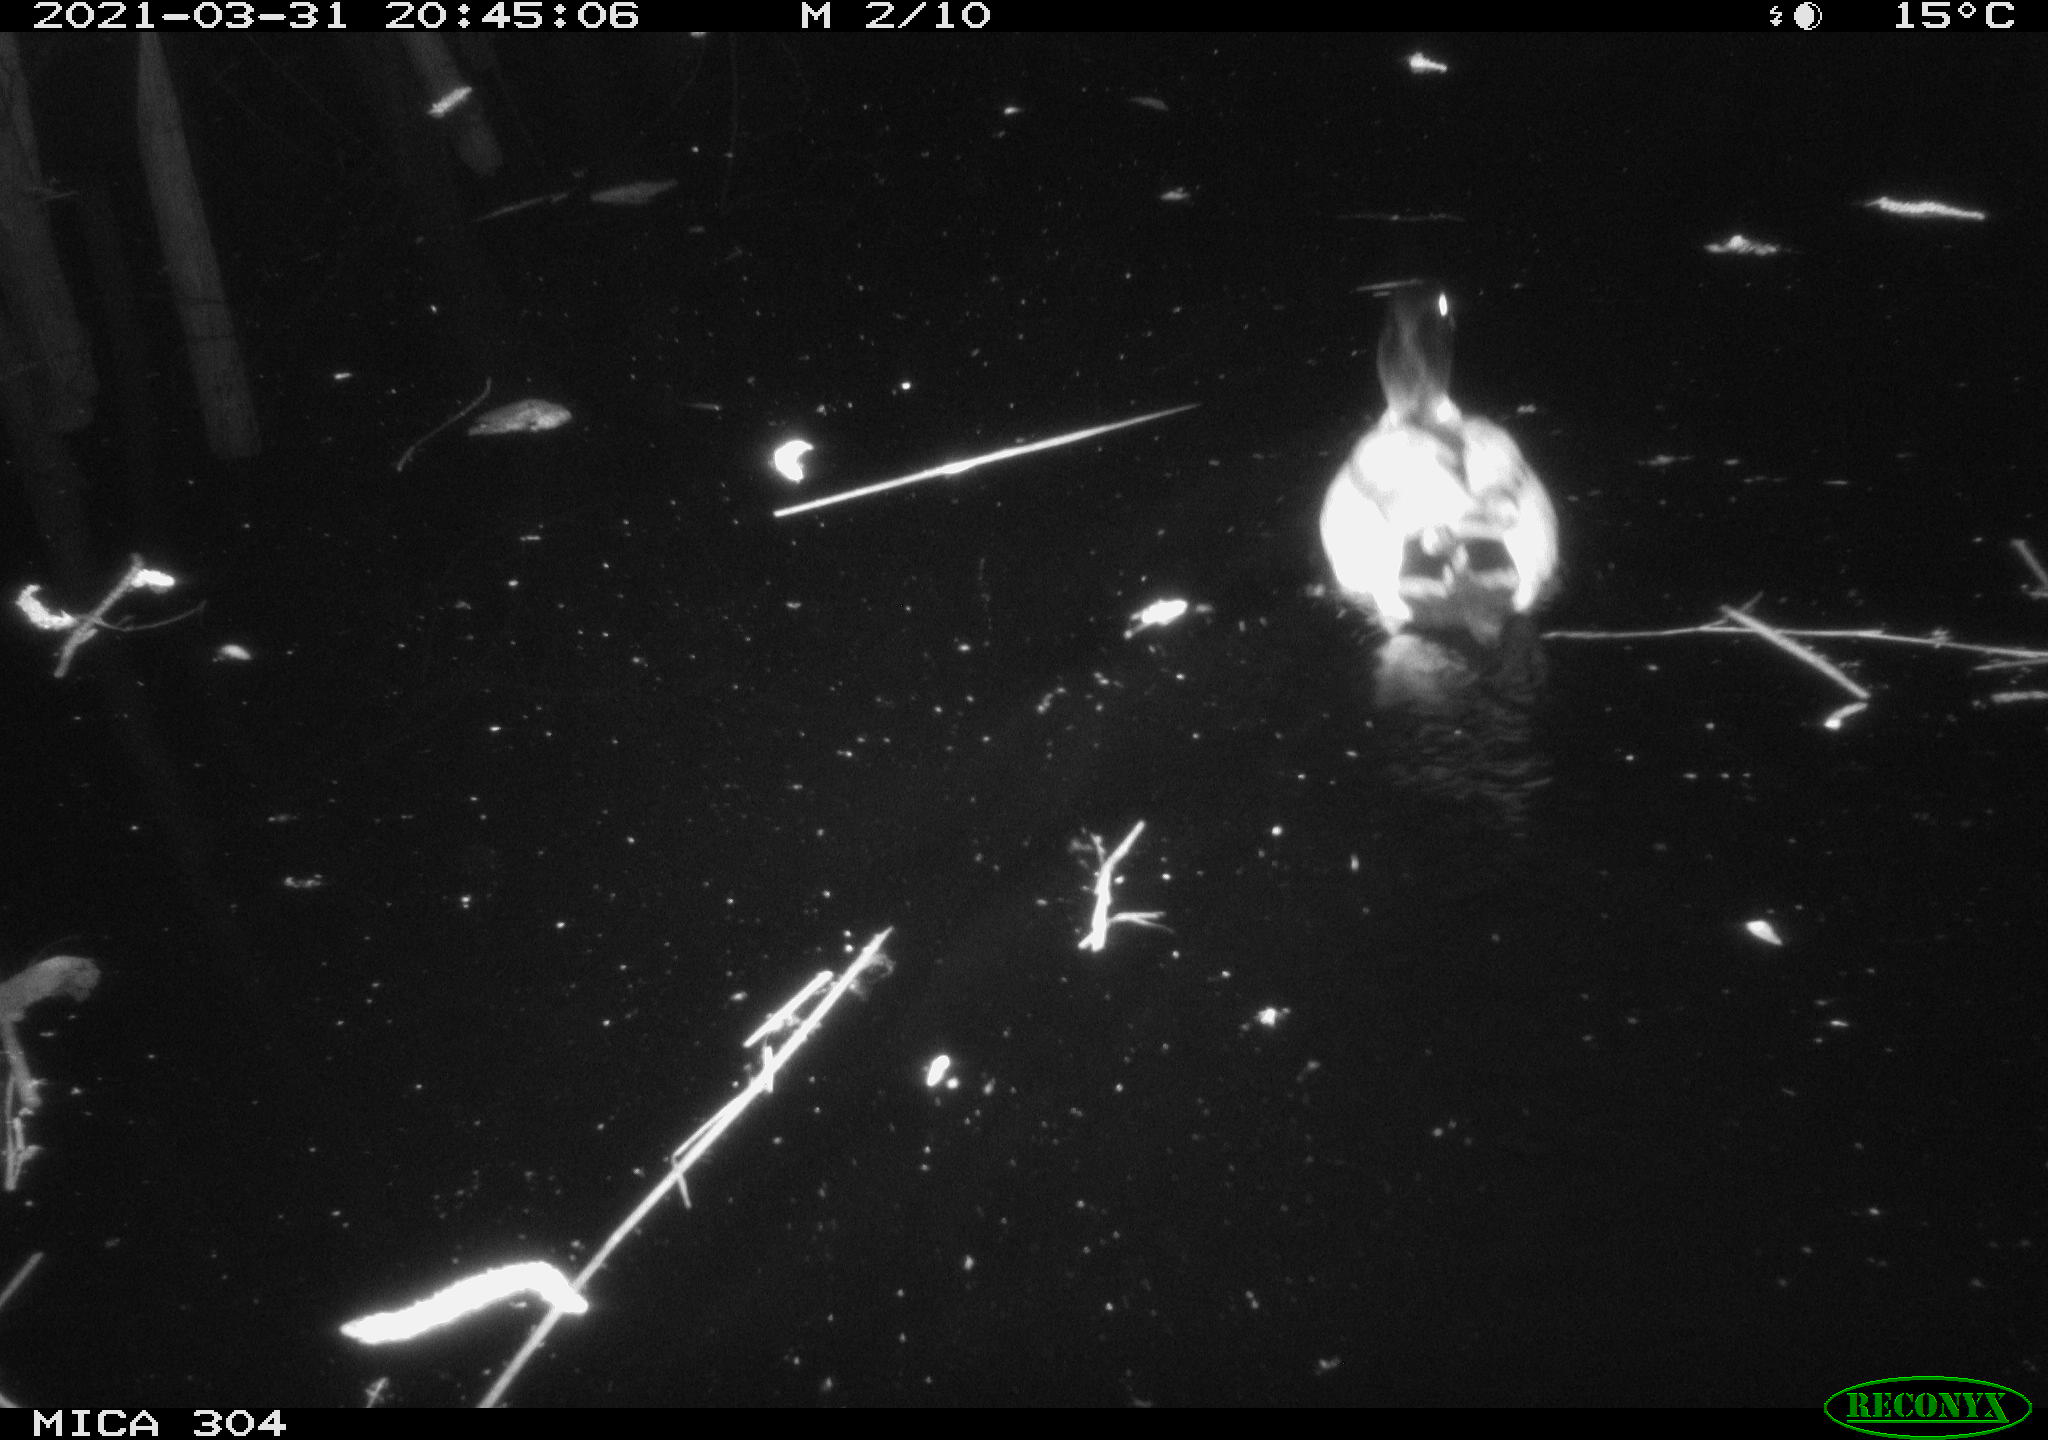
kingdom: Animalia
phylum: Chordata
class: Aves
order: Anseriformes
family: Anatidae
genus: Anas
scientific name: Anas platyrhynchos
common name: Mallard
